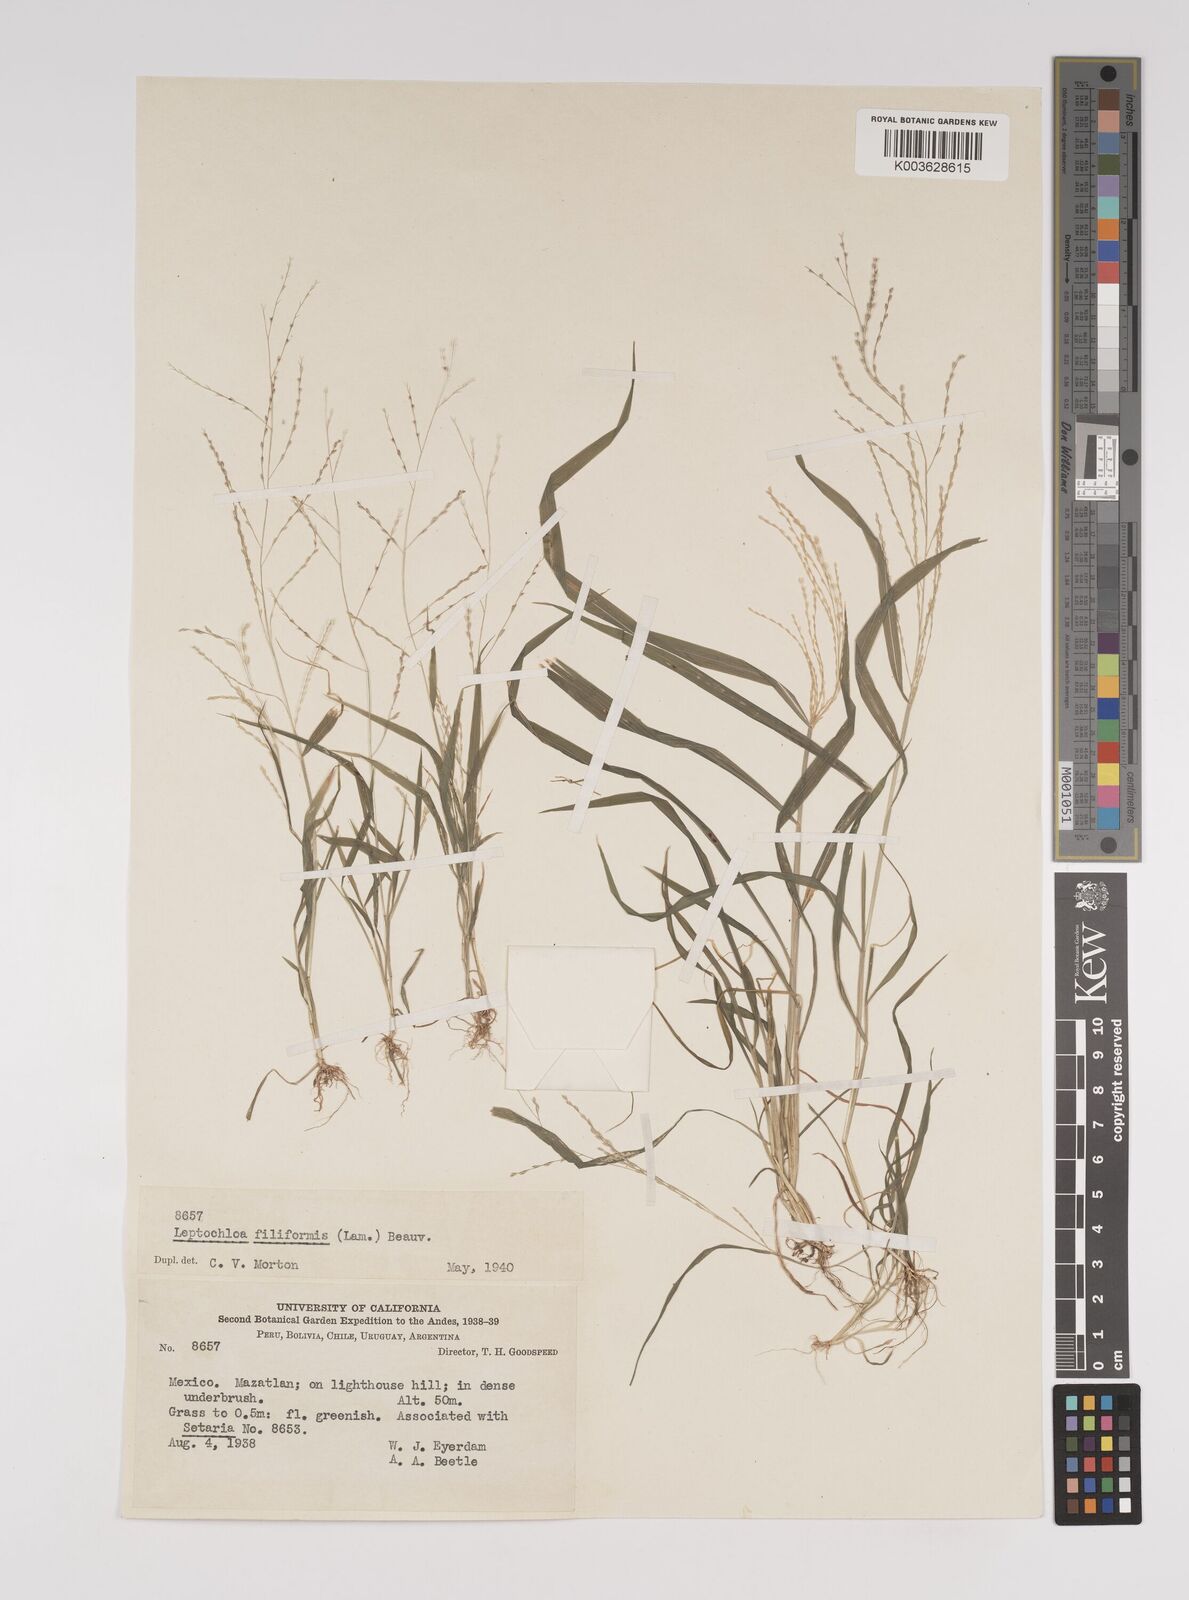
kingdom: Plantae
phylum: Tracheophyta
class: Liliopsida
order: Poales
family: Poaceae
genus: Leptochloa
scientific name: Leptochloa panicea
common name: Mucronate sprangletop
